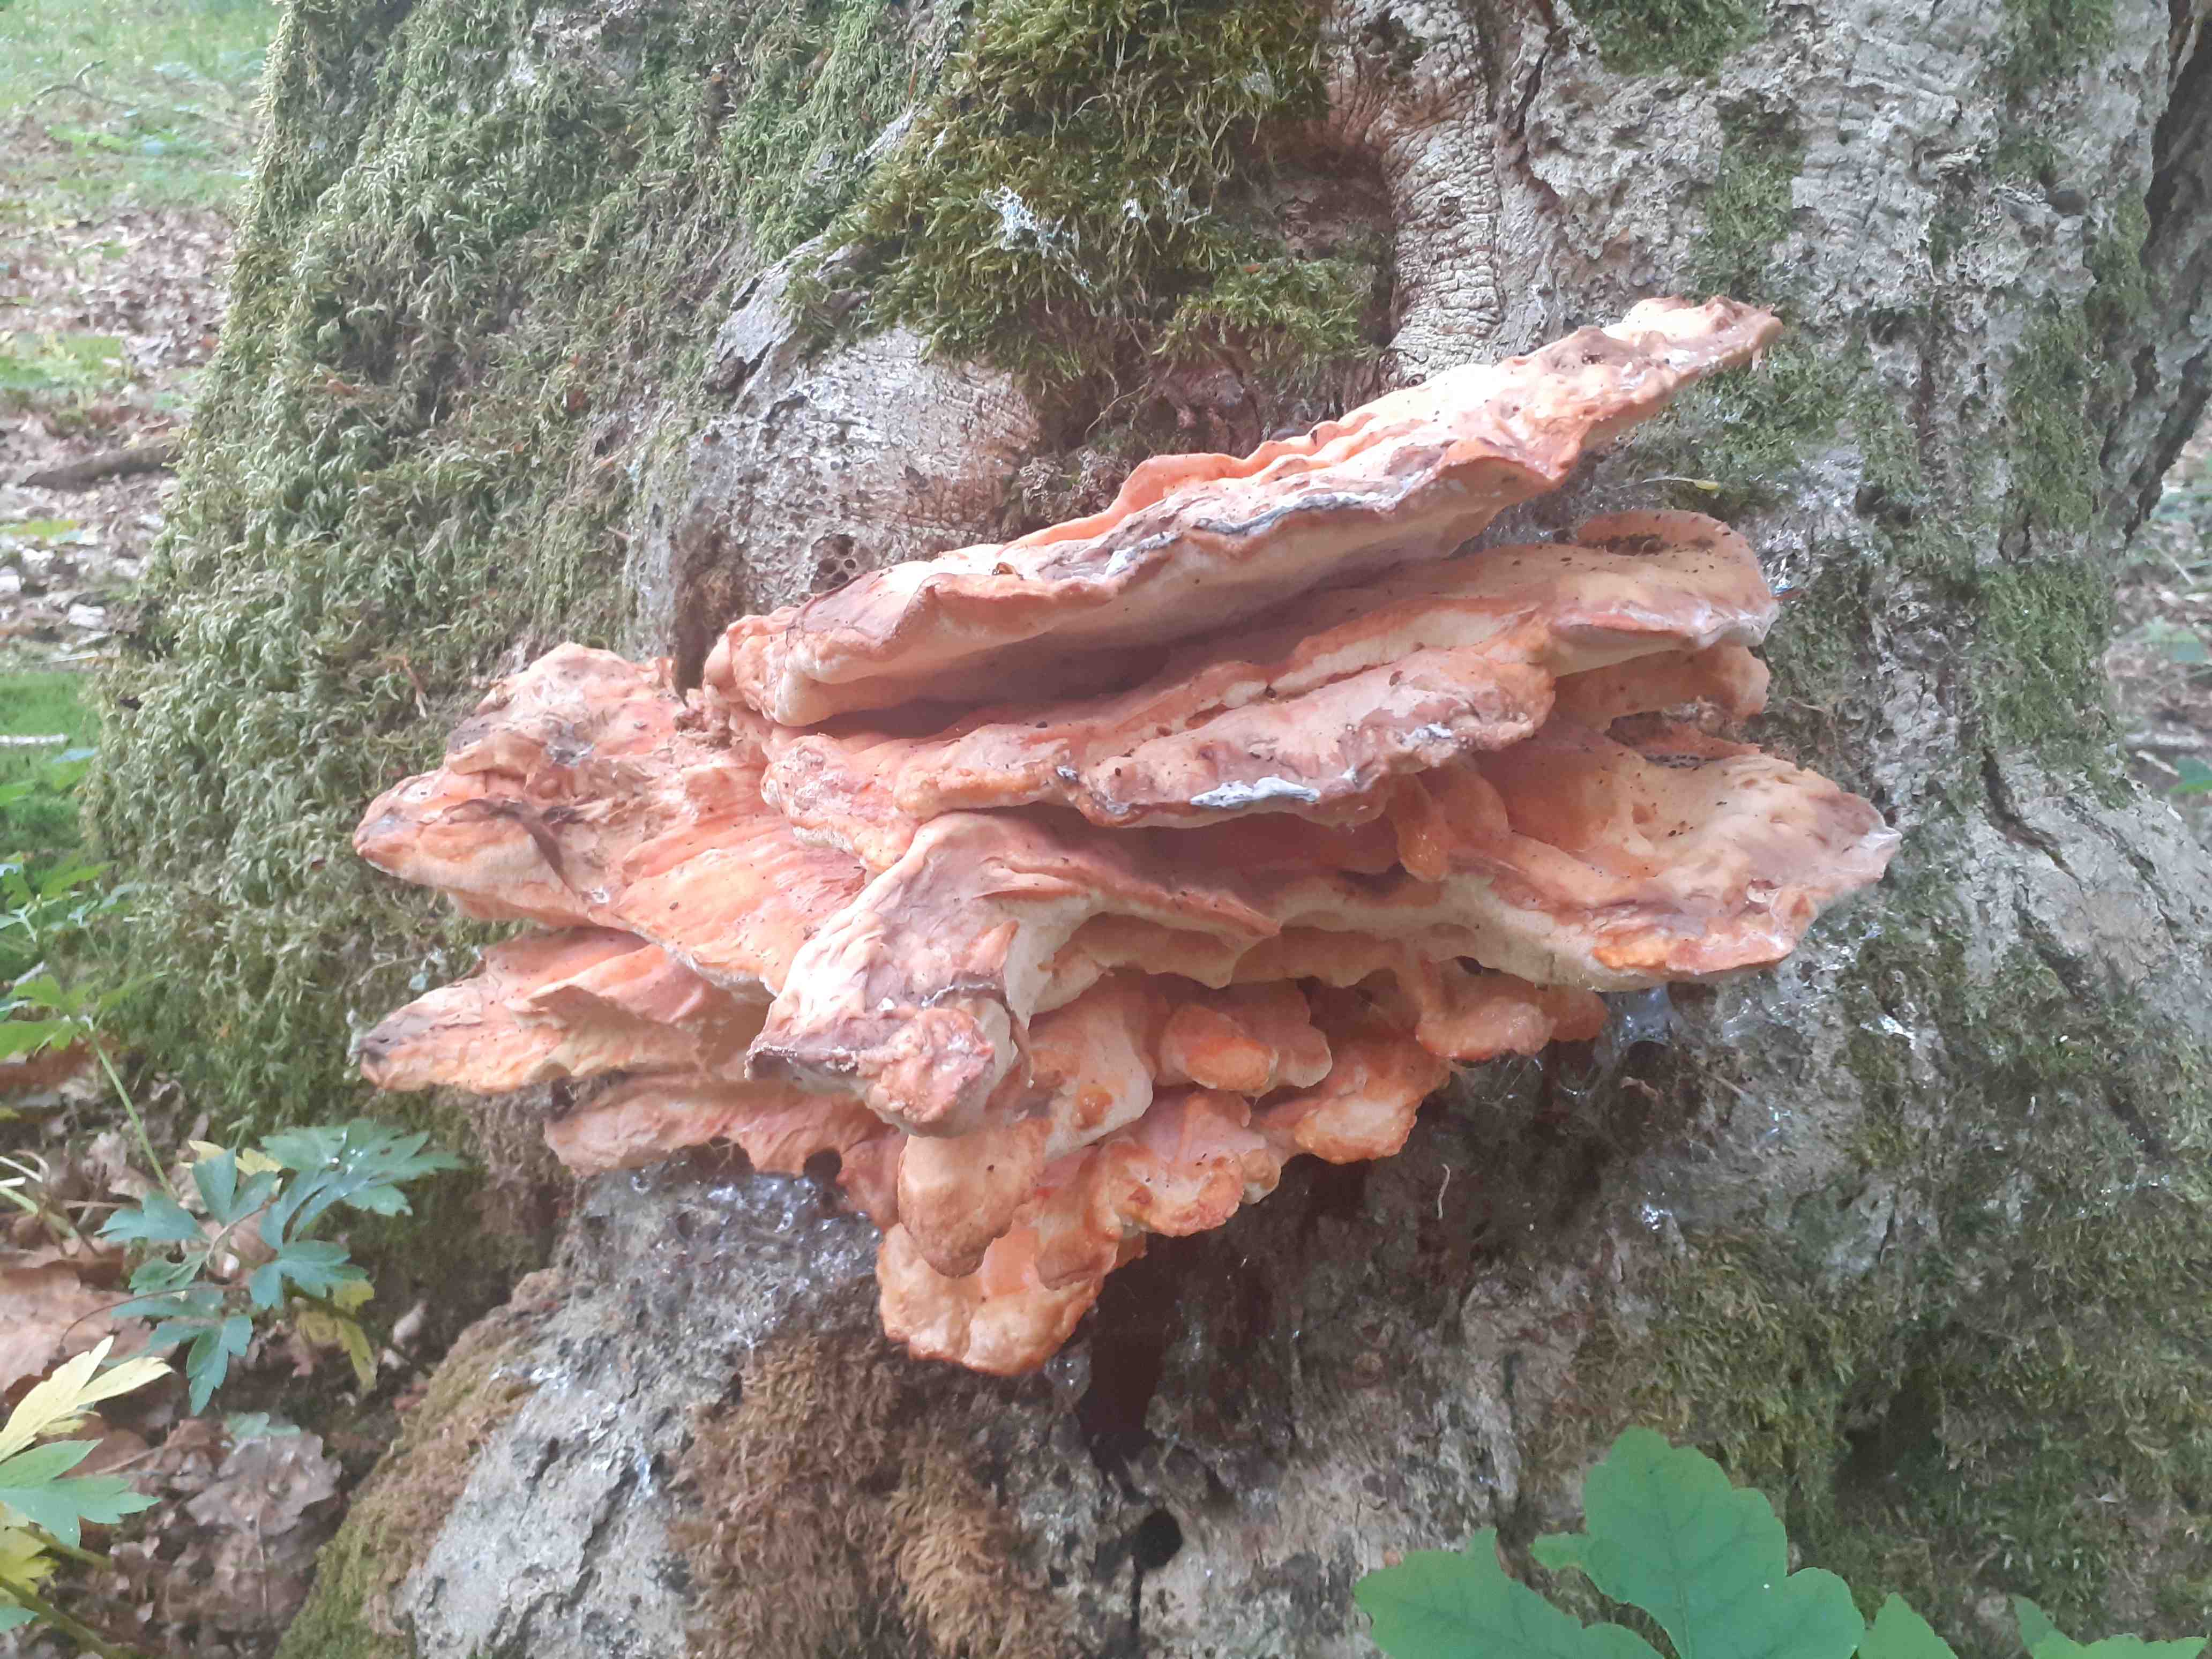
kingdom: Fungi
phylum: Basidiomycota
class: Agaricomycetes
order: Polyporales
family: Laetiporaceae
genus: Laetiporus
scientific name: Laetiporus sulphureus
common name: svovlporesvamp
